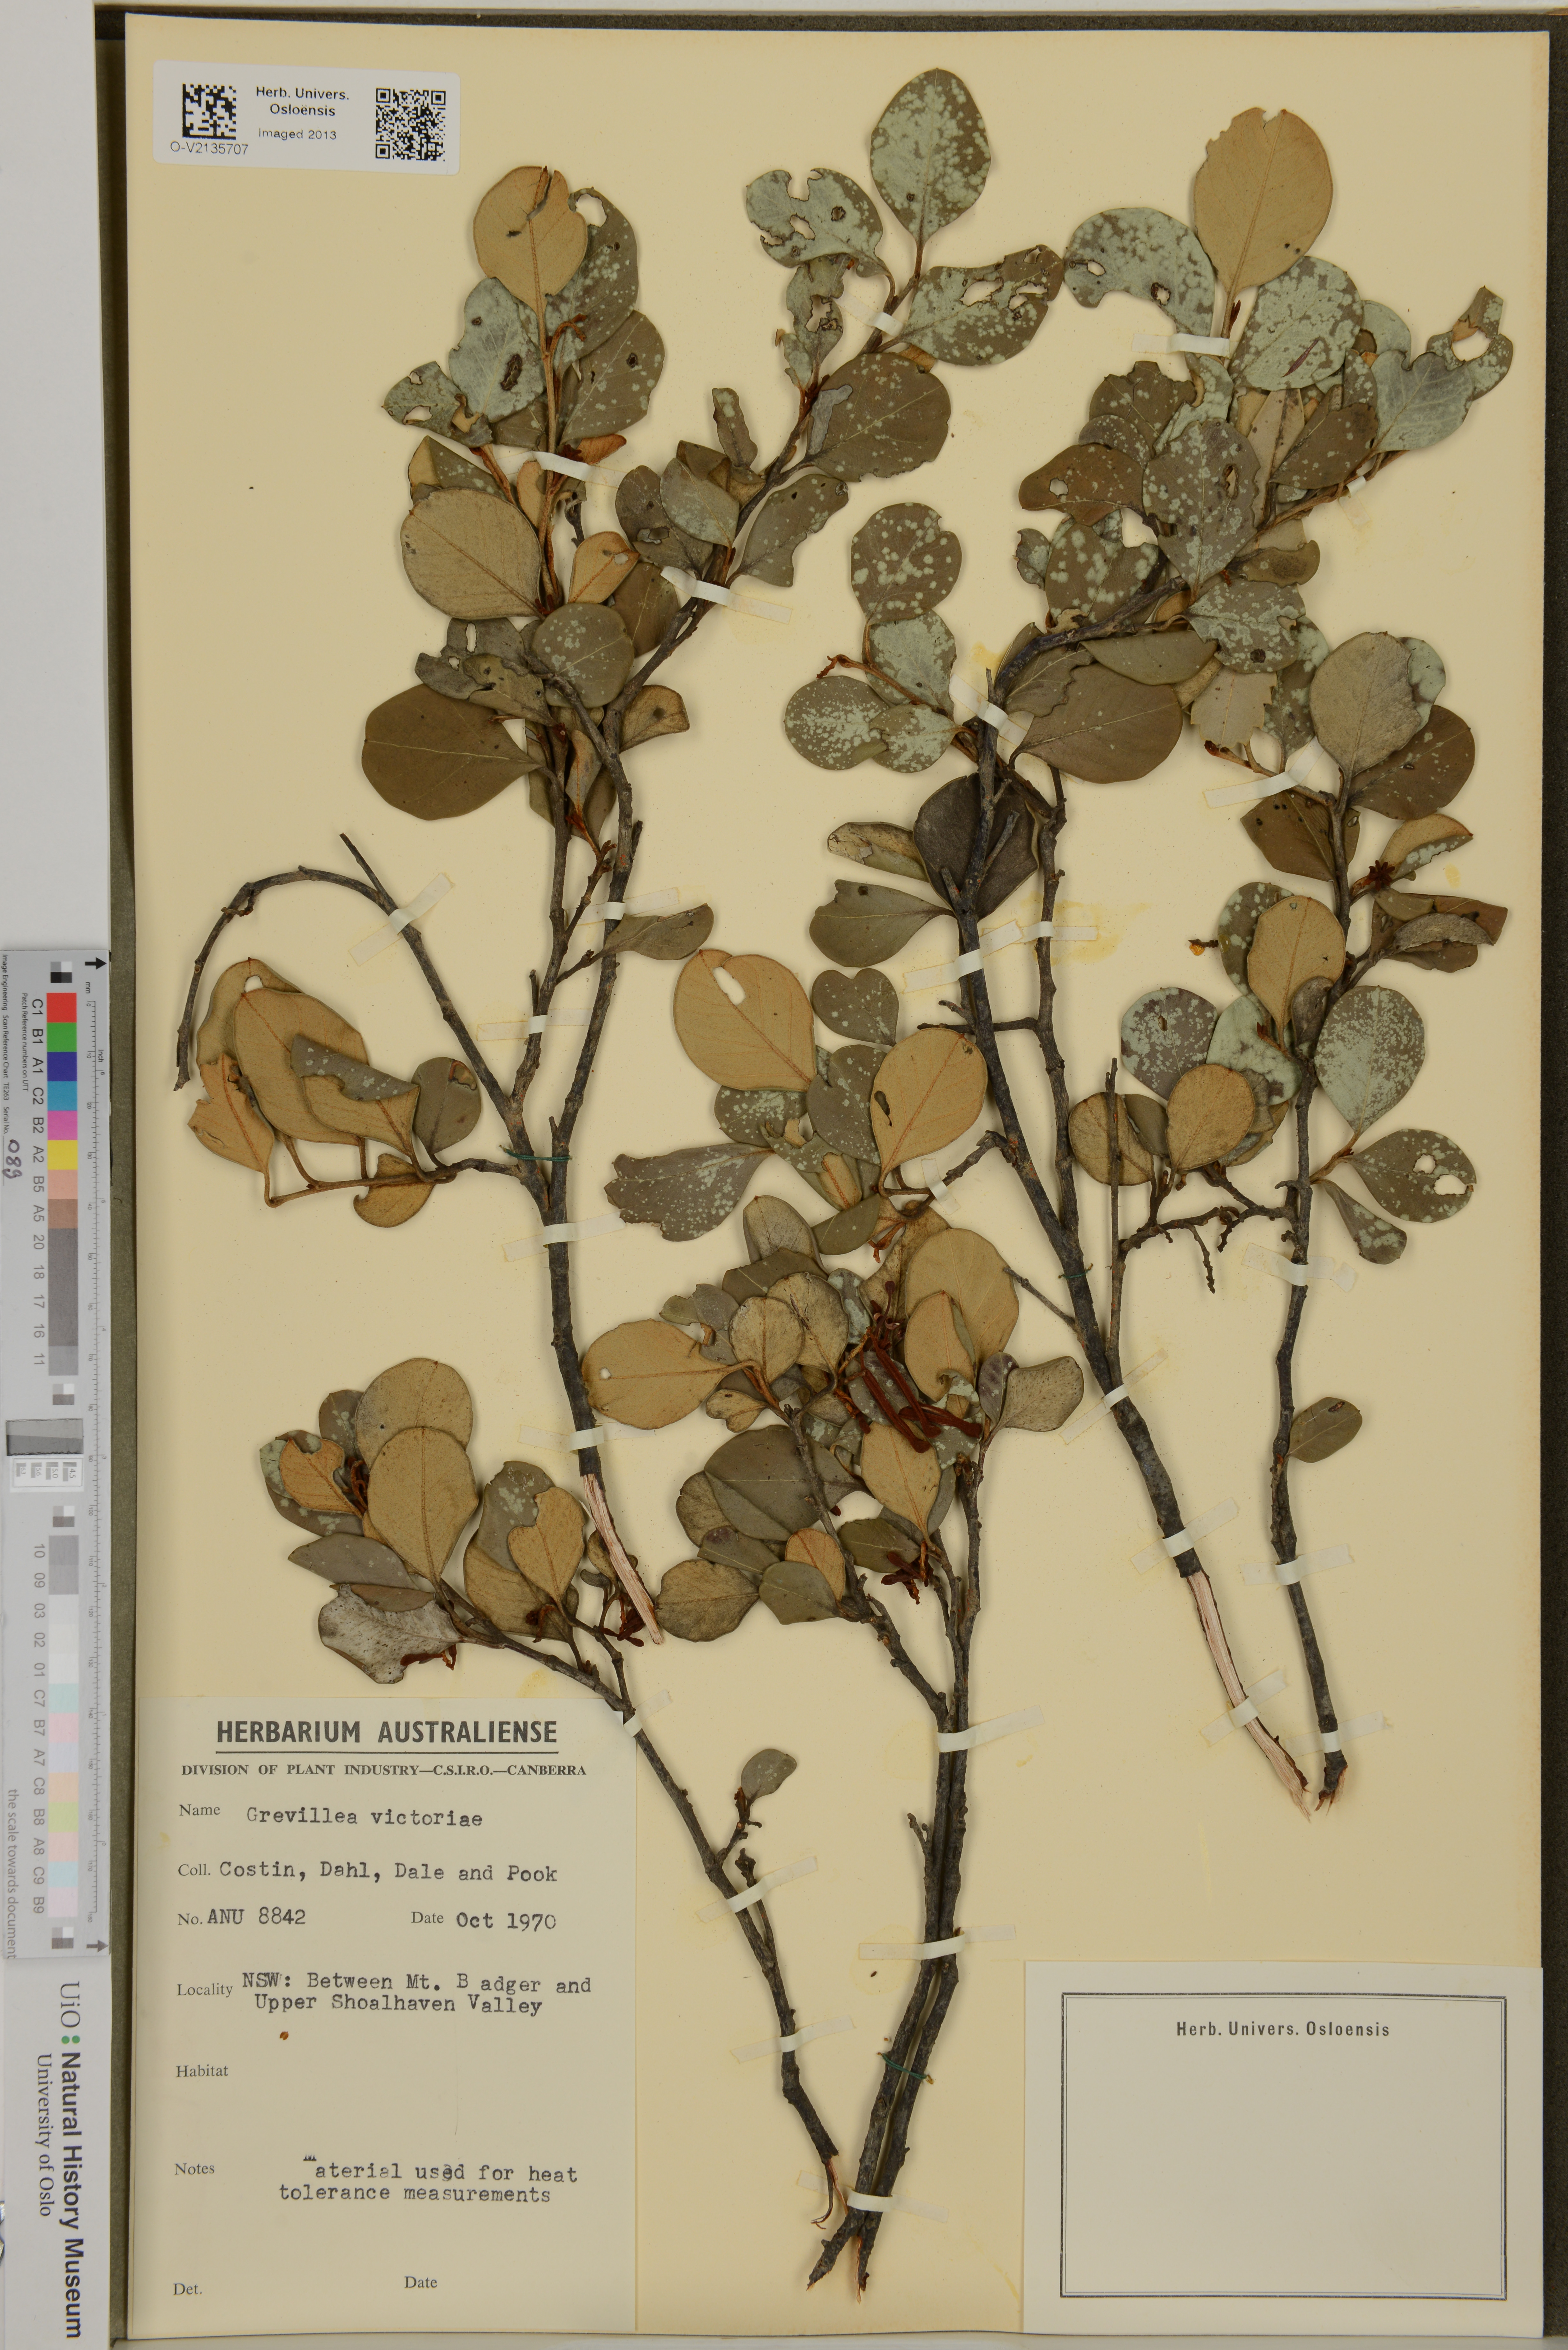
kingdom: Plantae
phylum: Tracheophyta
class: Magnoliopsida
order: Proteales
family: Proteaceae
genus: Grevillea
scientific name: Grevillea victoriae
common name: Royal grevillea
